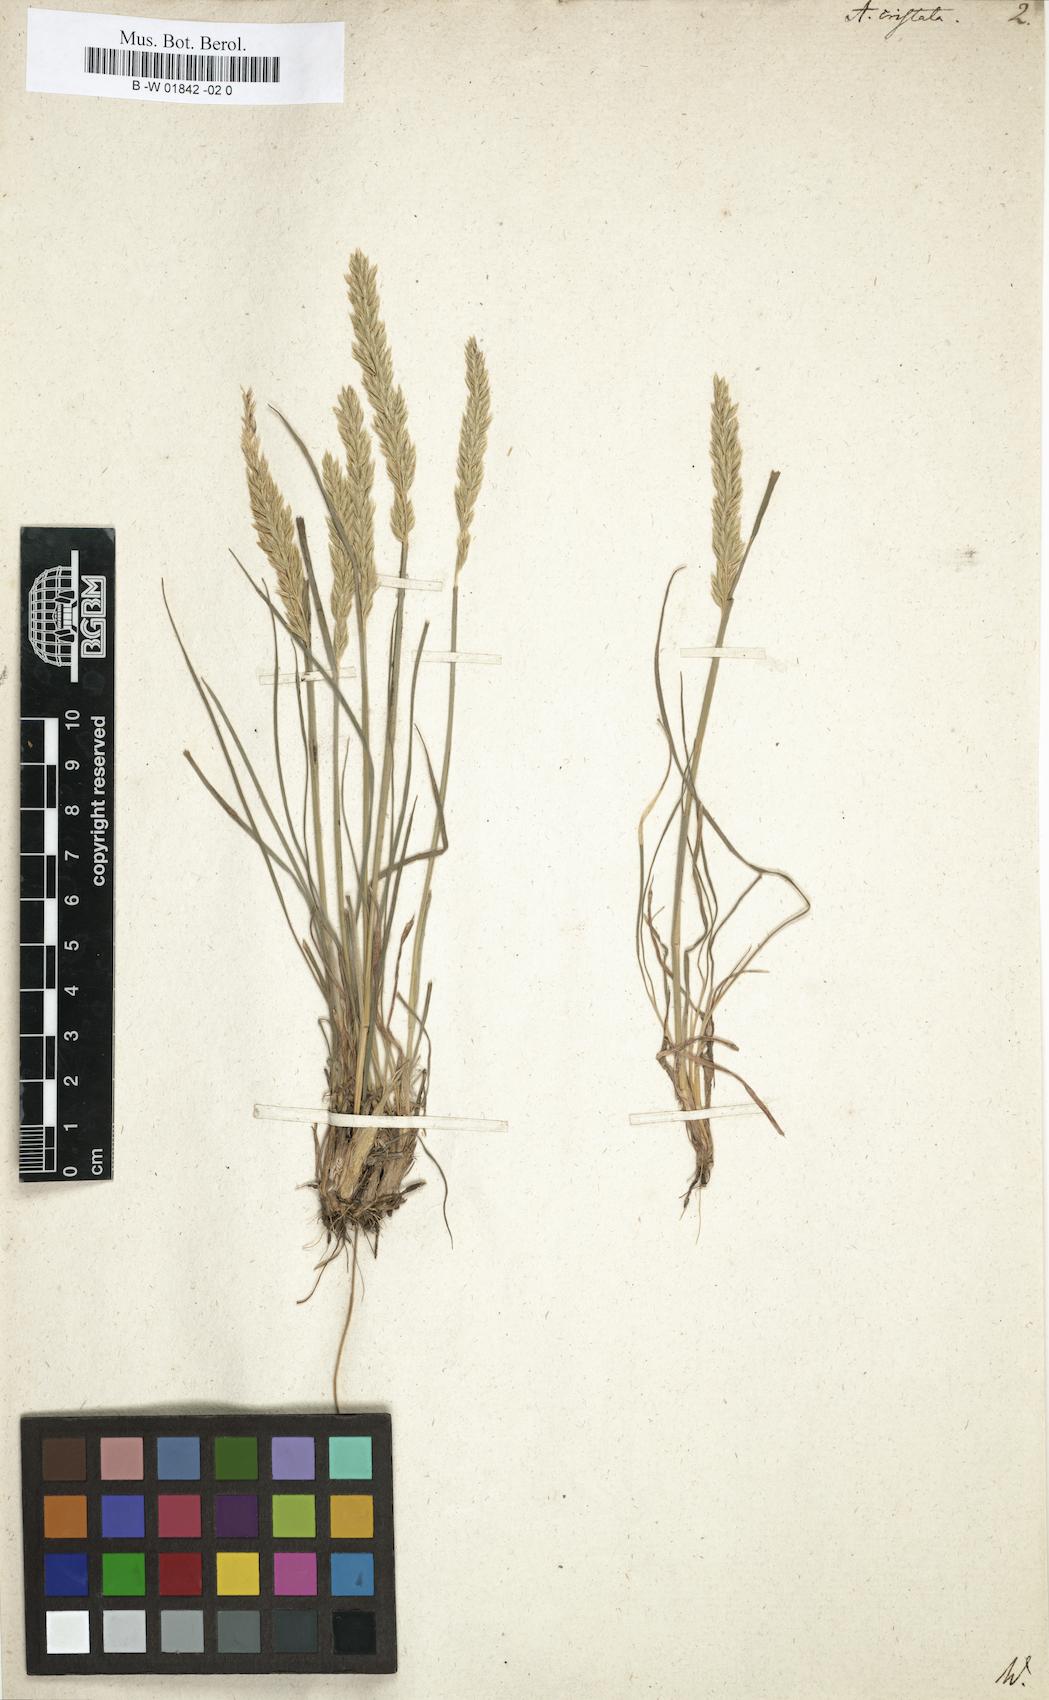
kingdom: Plantae
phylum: Tracheophyta
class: Liliopsida
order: Poales
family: Poaceae
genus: Koeleria
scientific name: Koeleria macrantha
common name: Crested hair-grass
